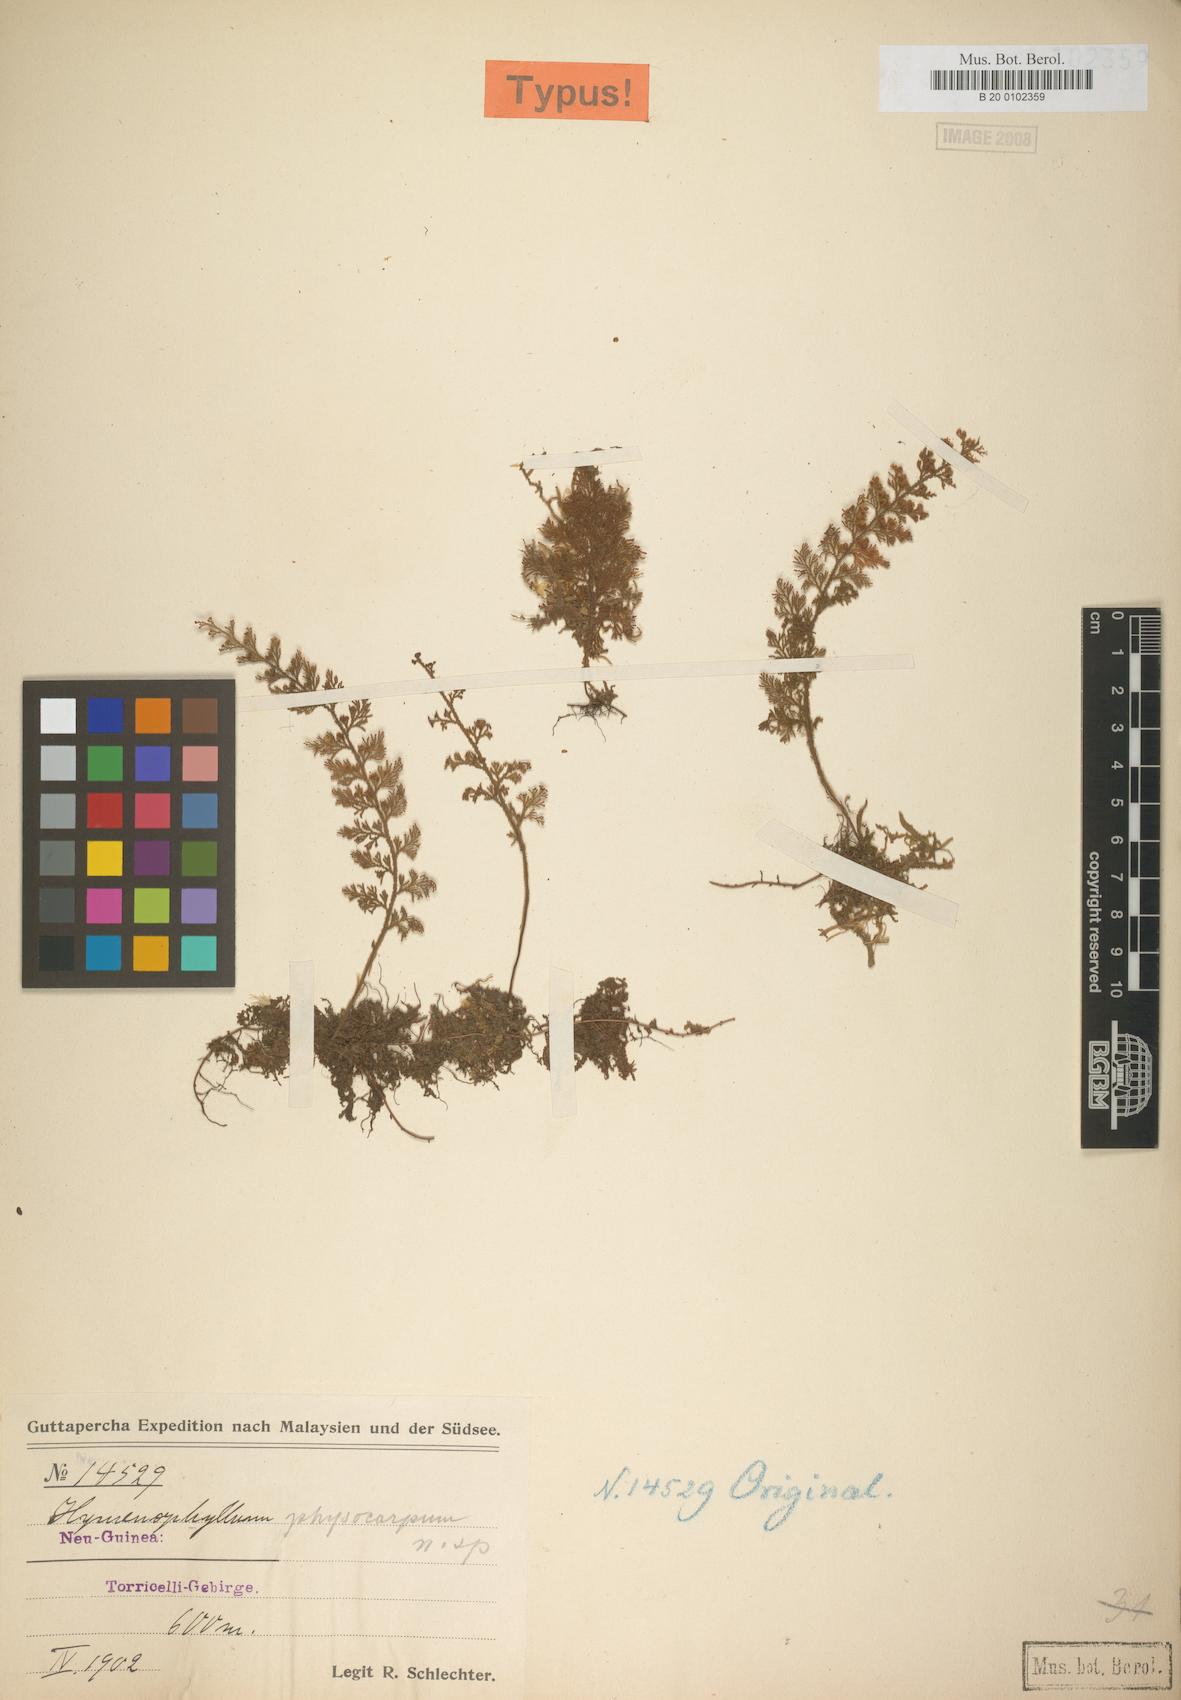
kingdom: Plantae
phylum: Tracheophyta
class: Polypodiopsida
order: Hymenophyllales
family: Hymenophyllaceae
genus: Hymenophyllum
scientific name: Hymenophyllum thuidium
